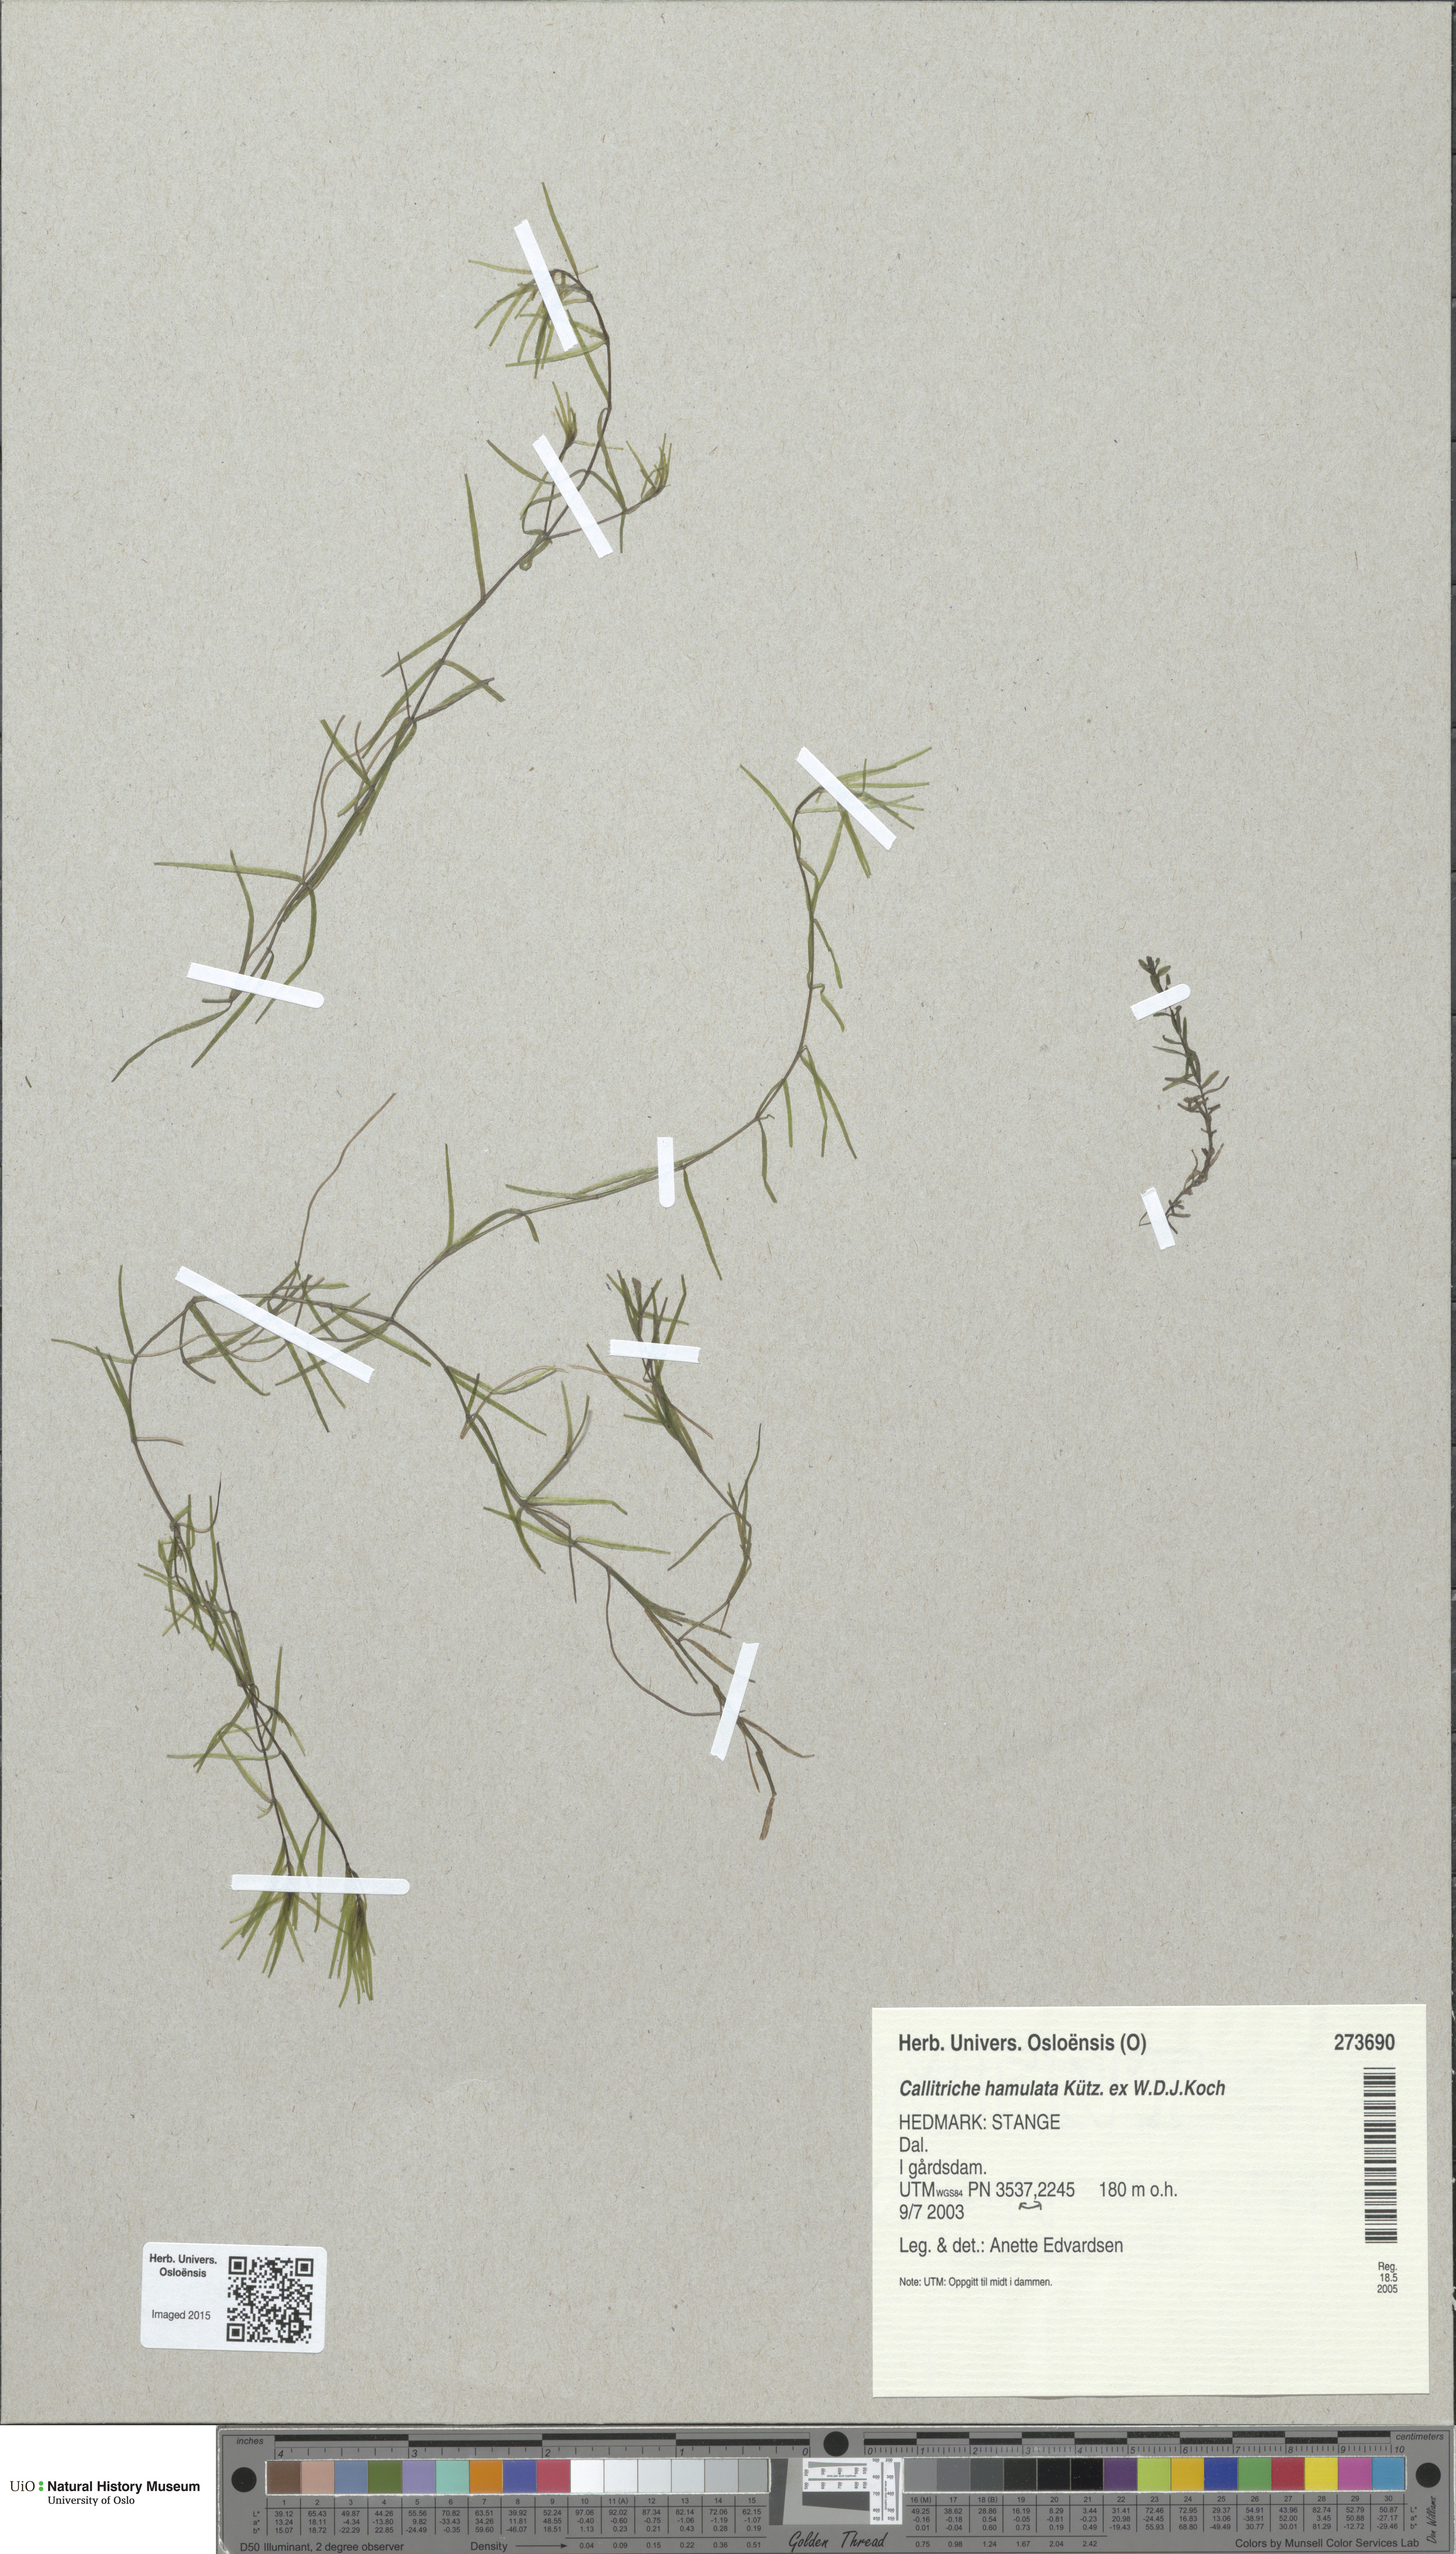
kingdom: Plantae
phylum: Tracheophyta
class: Magnoliopsida
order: Lamiales
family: Plantaginaceae
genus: Callitriche
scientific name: Callitriche hamulata
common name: Intermediate water-starwort
